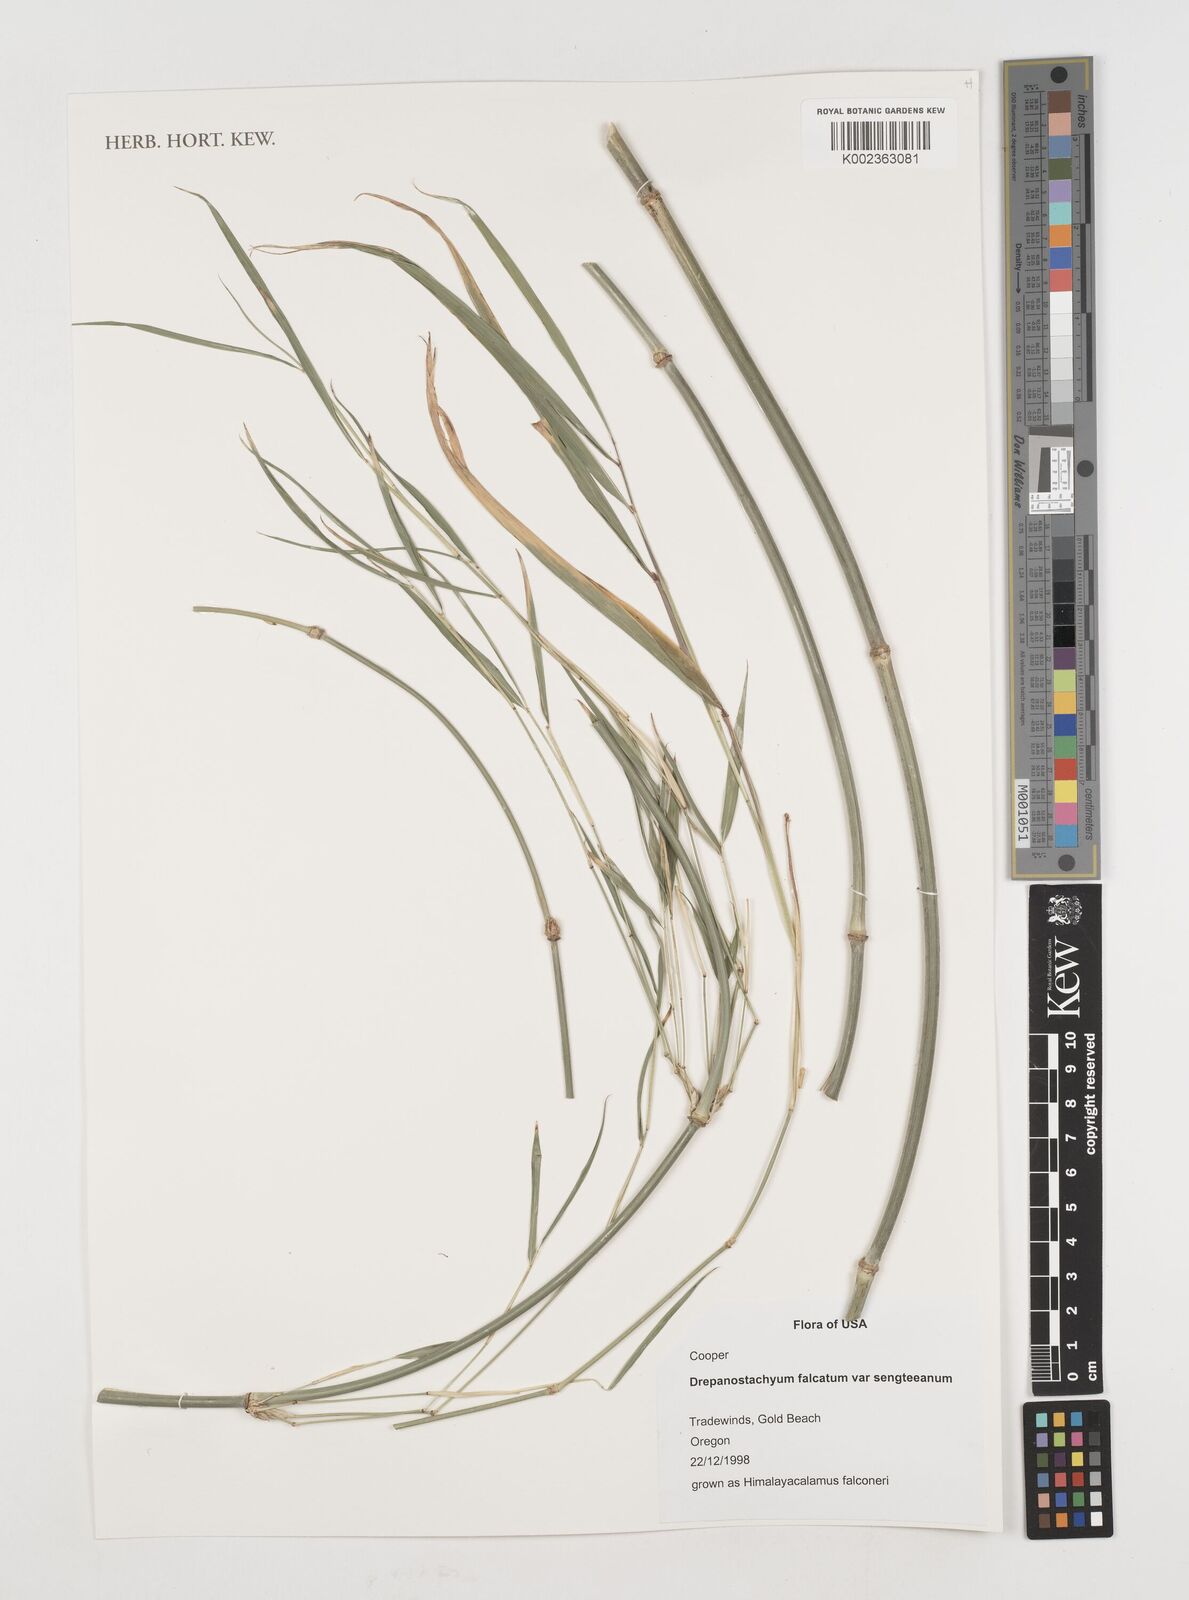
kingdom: Plantae
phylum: Tracheophyta
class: Liliopsida
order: Poales
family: Poaceae
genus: Drepanostachyum
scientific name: Drepanostachyum falcatum
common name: Himalayan bamboo
